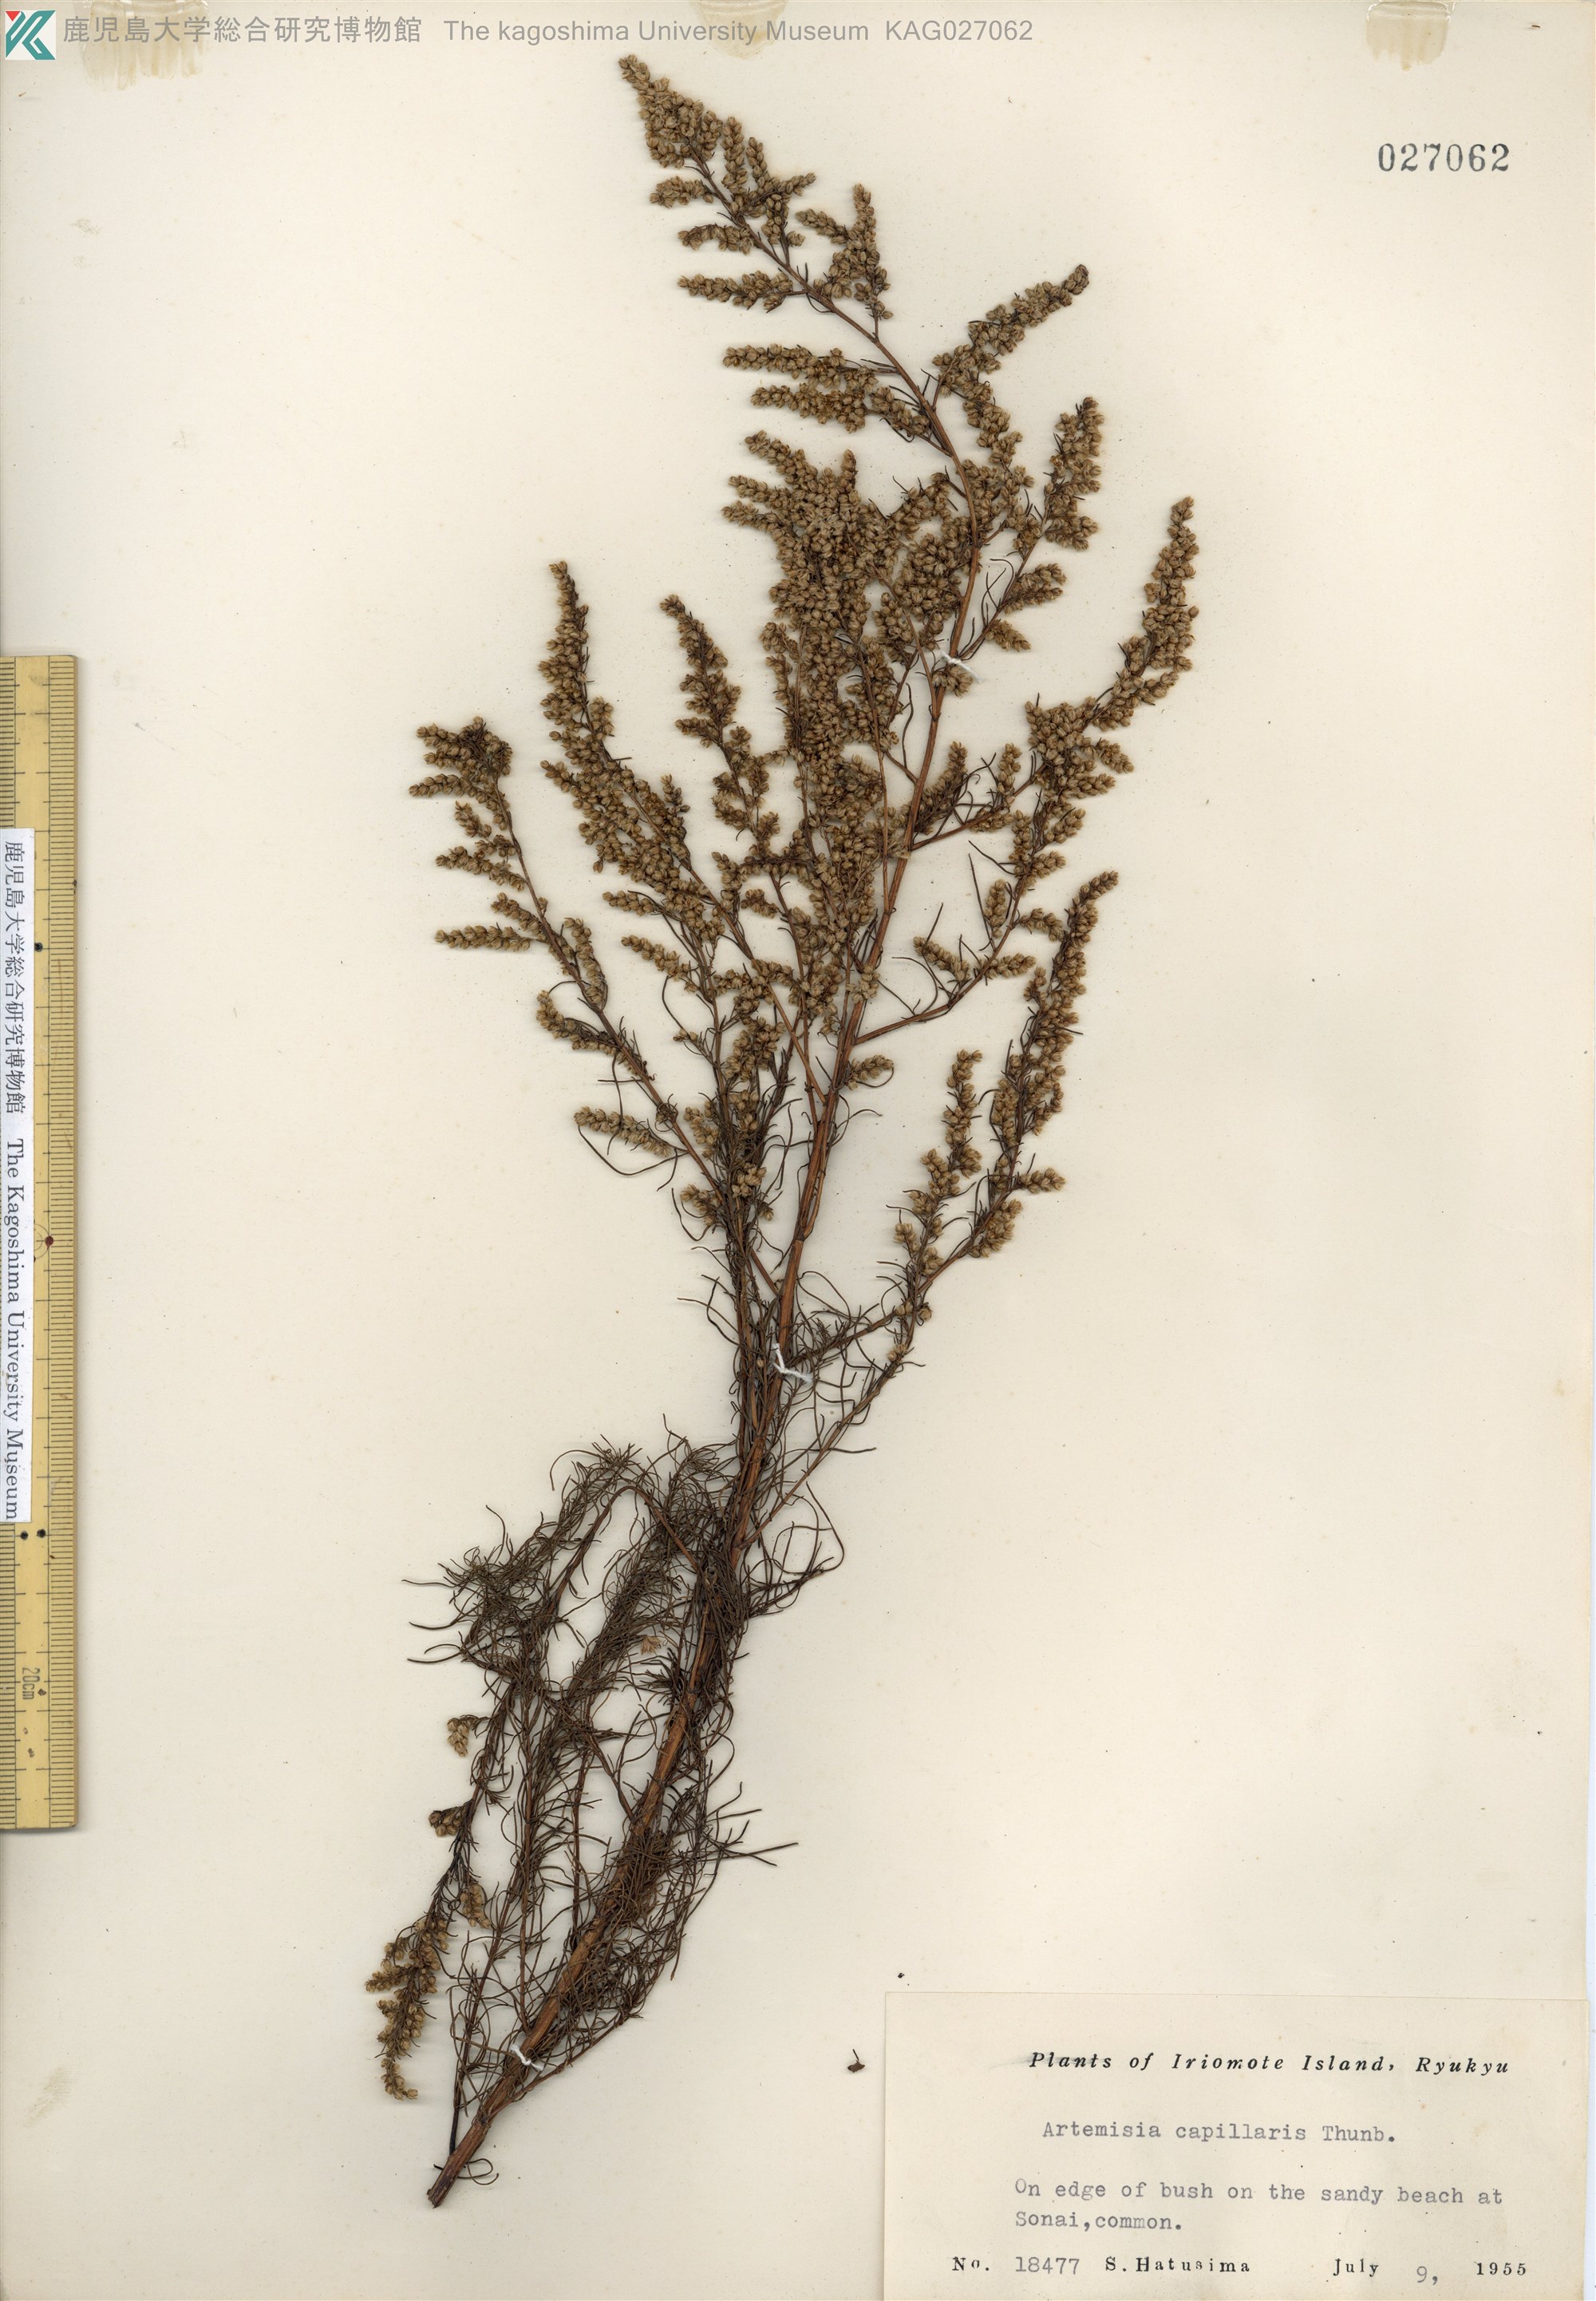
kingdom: Plantae
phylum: Tracheophyta
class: Magnoliopsida
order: Asterales
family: Asteraceae
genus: Artemisia
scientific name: Artemisia capillaris
